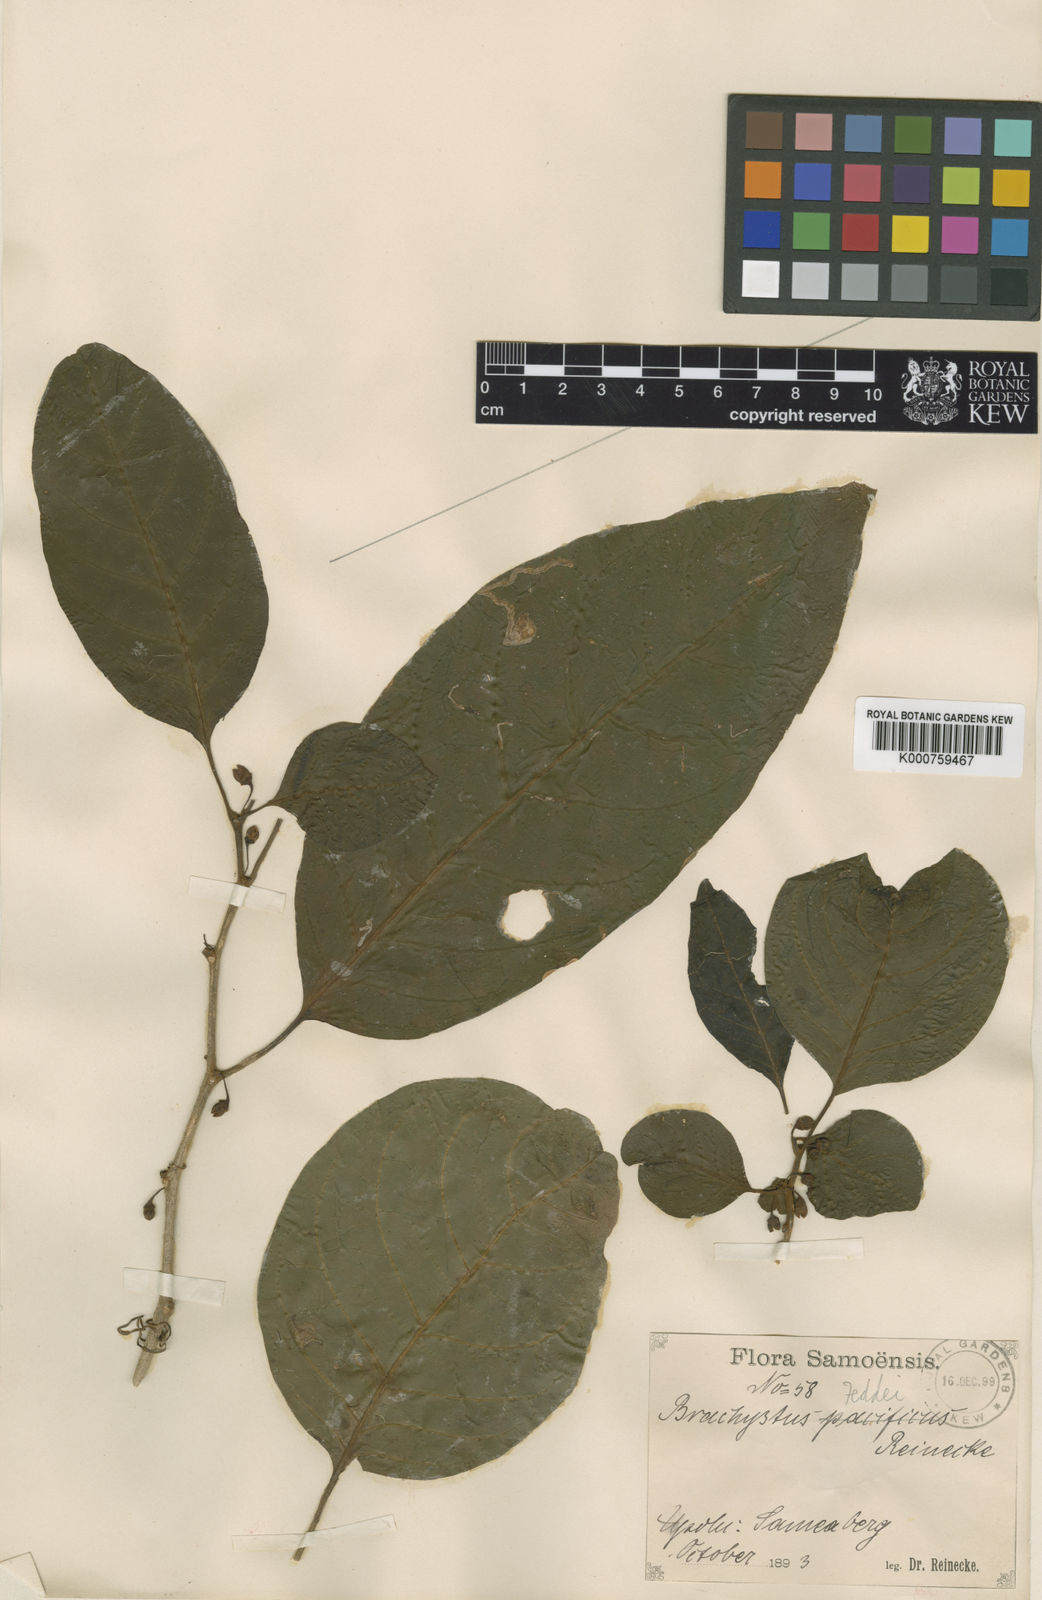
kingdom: Plantae
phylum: Tracheophyta
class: Magnoliopsida
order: Solanales
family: Solanaceae
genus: Lycianthes
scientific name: Lycianthes vitiensis
